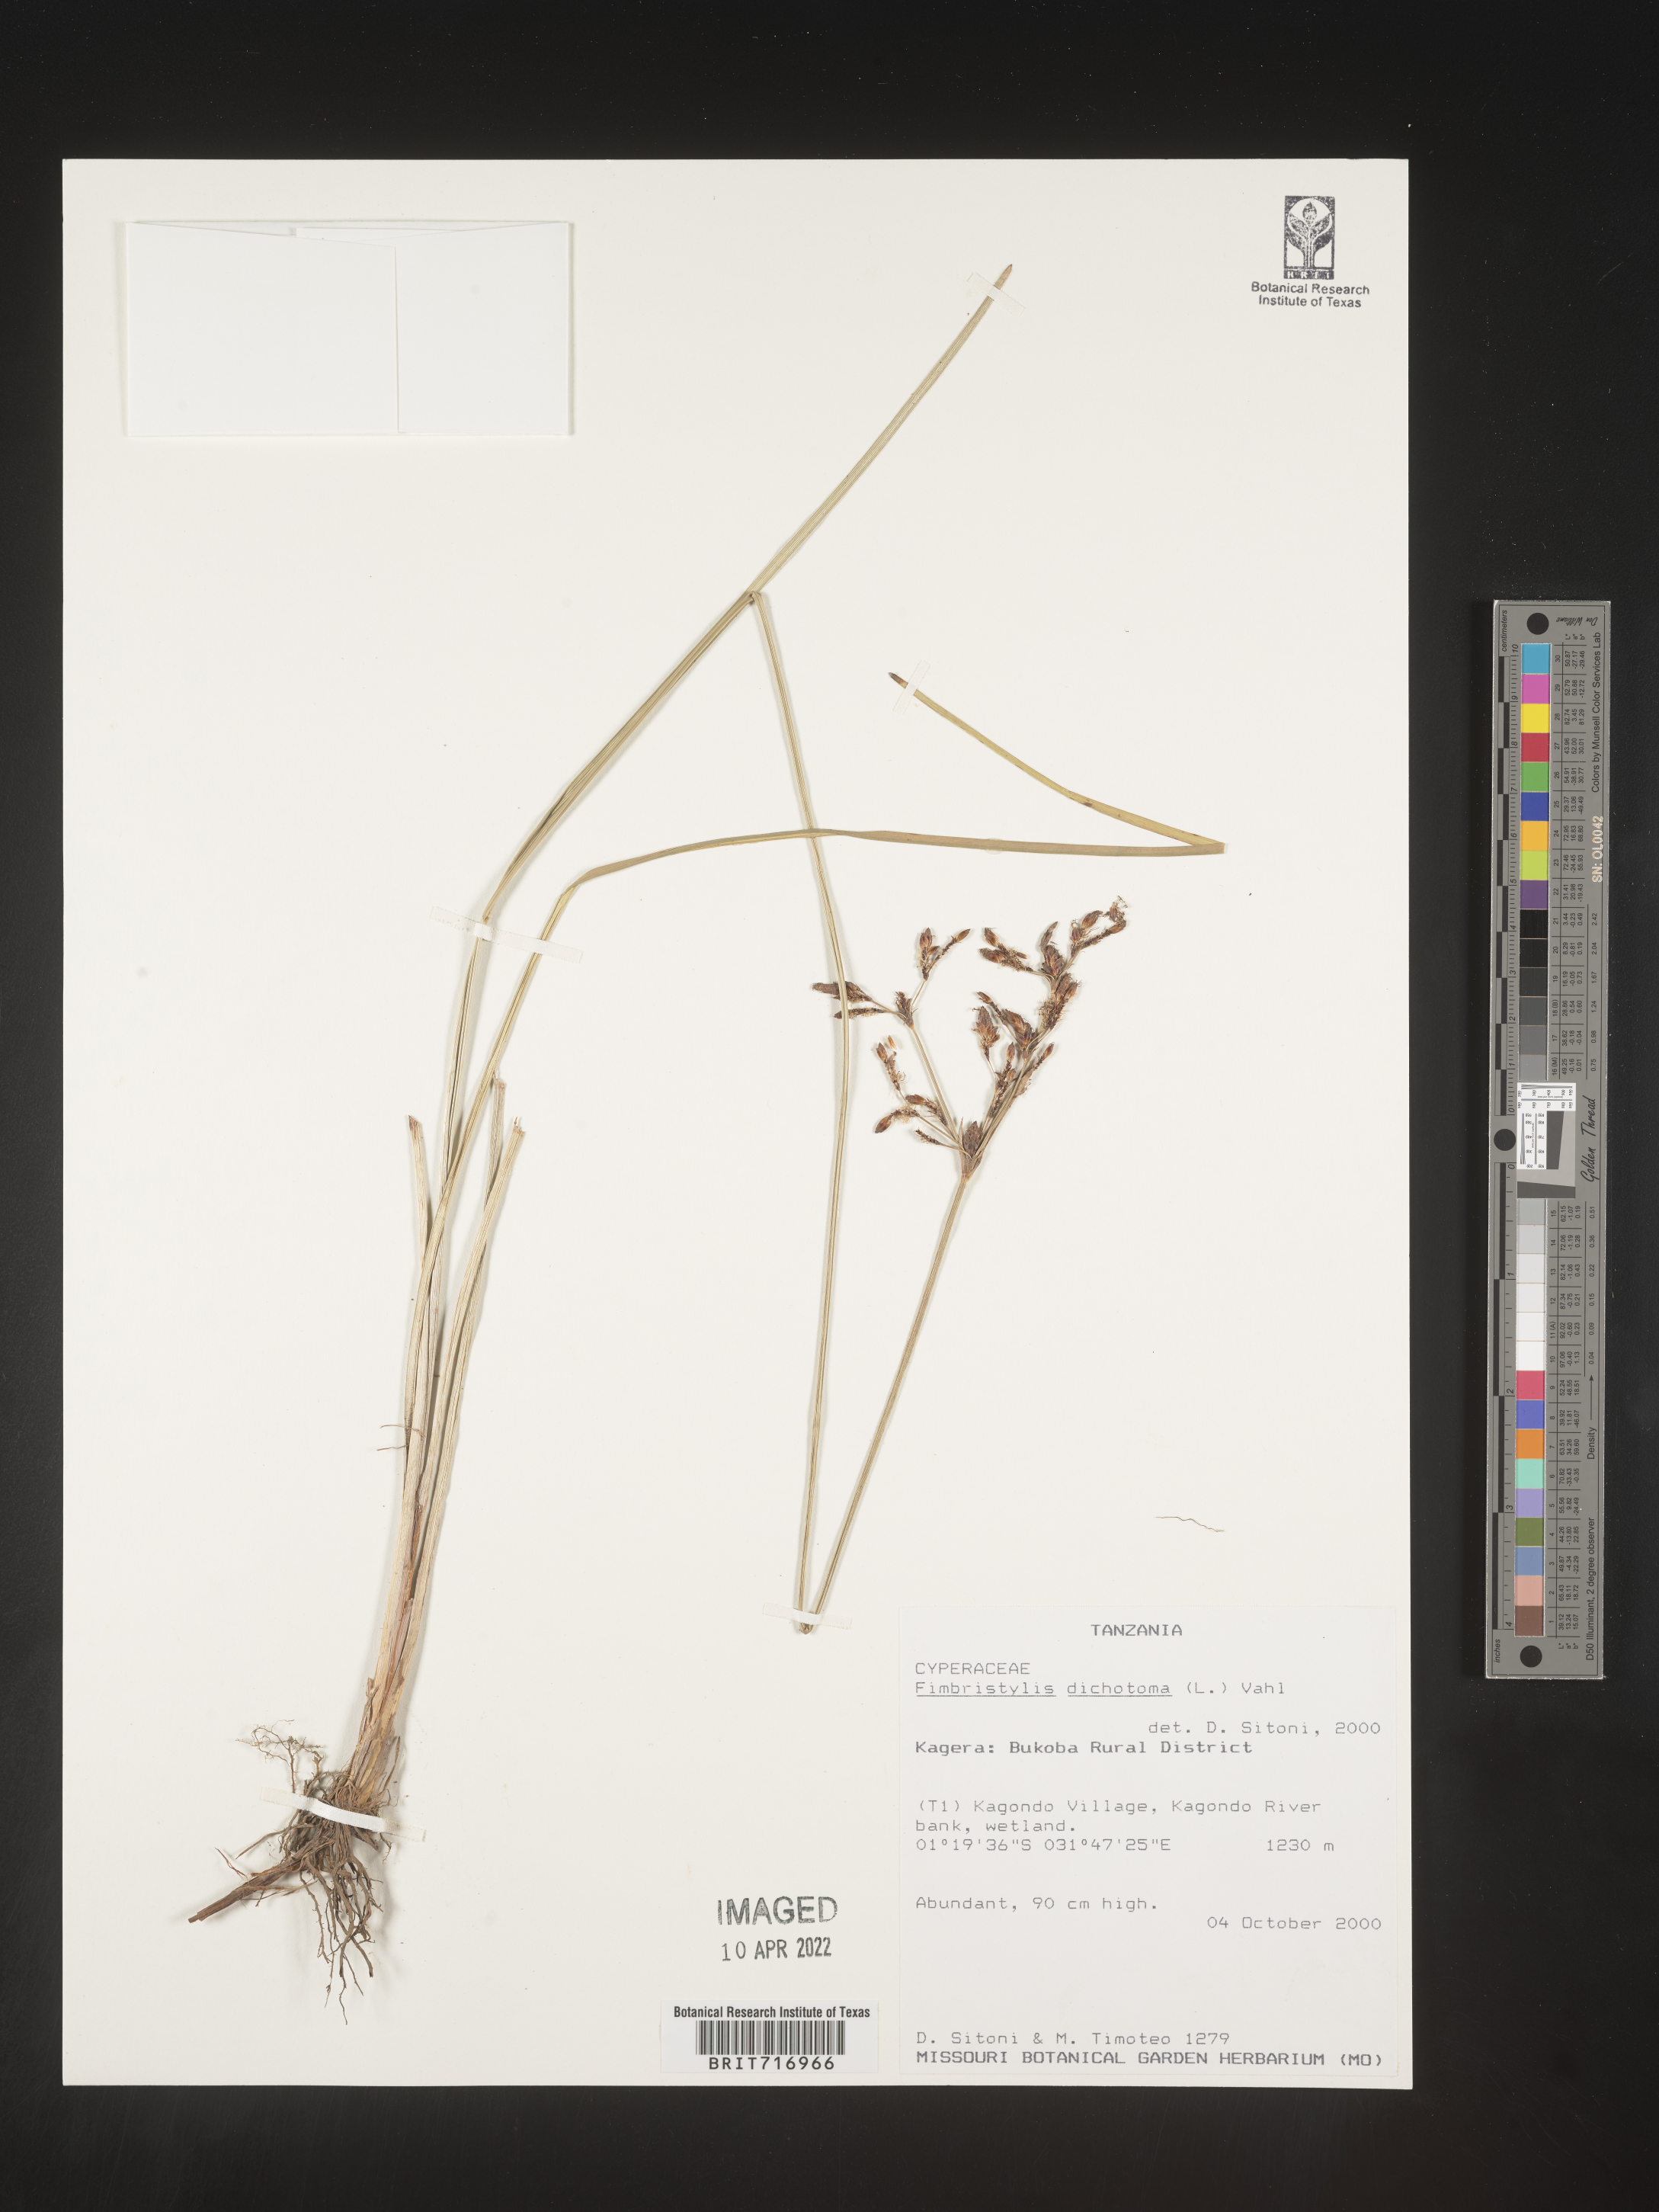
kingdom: Plantae
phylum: Tracheophyta
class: Liliopsida
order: Poales
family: Cyperaceae
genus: Fimbristylis
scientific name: Fimbristylis
